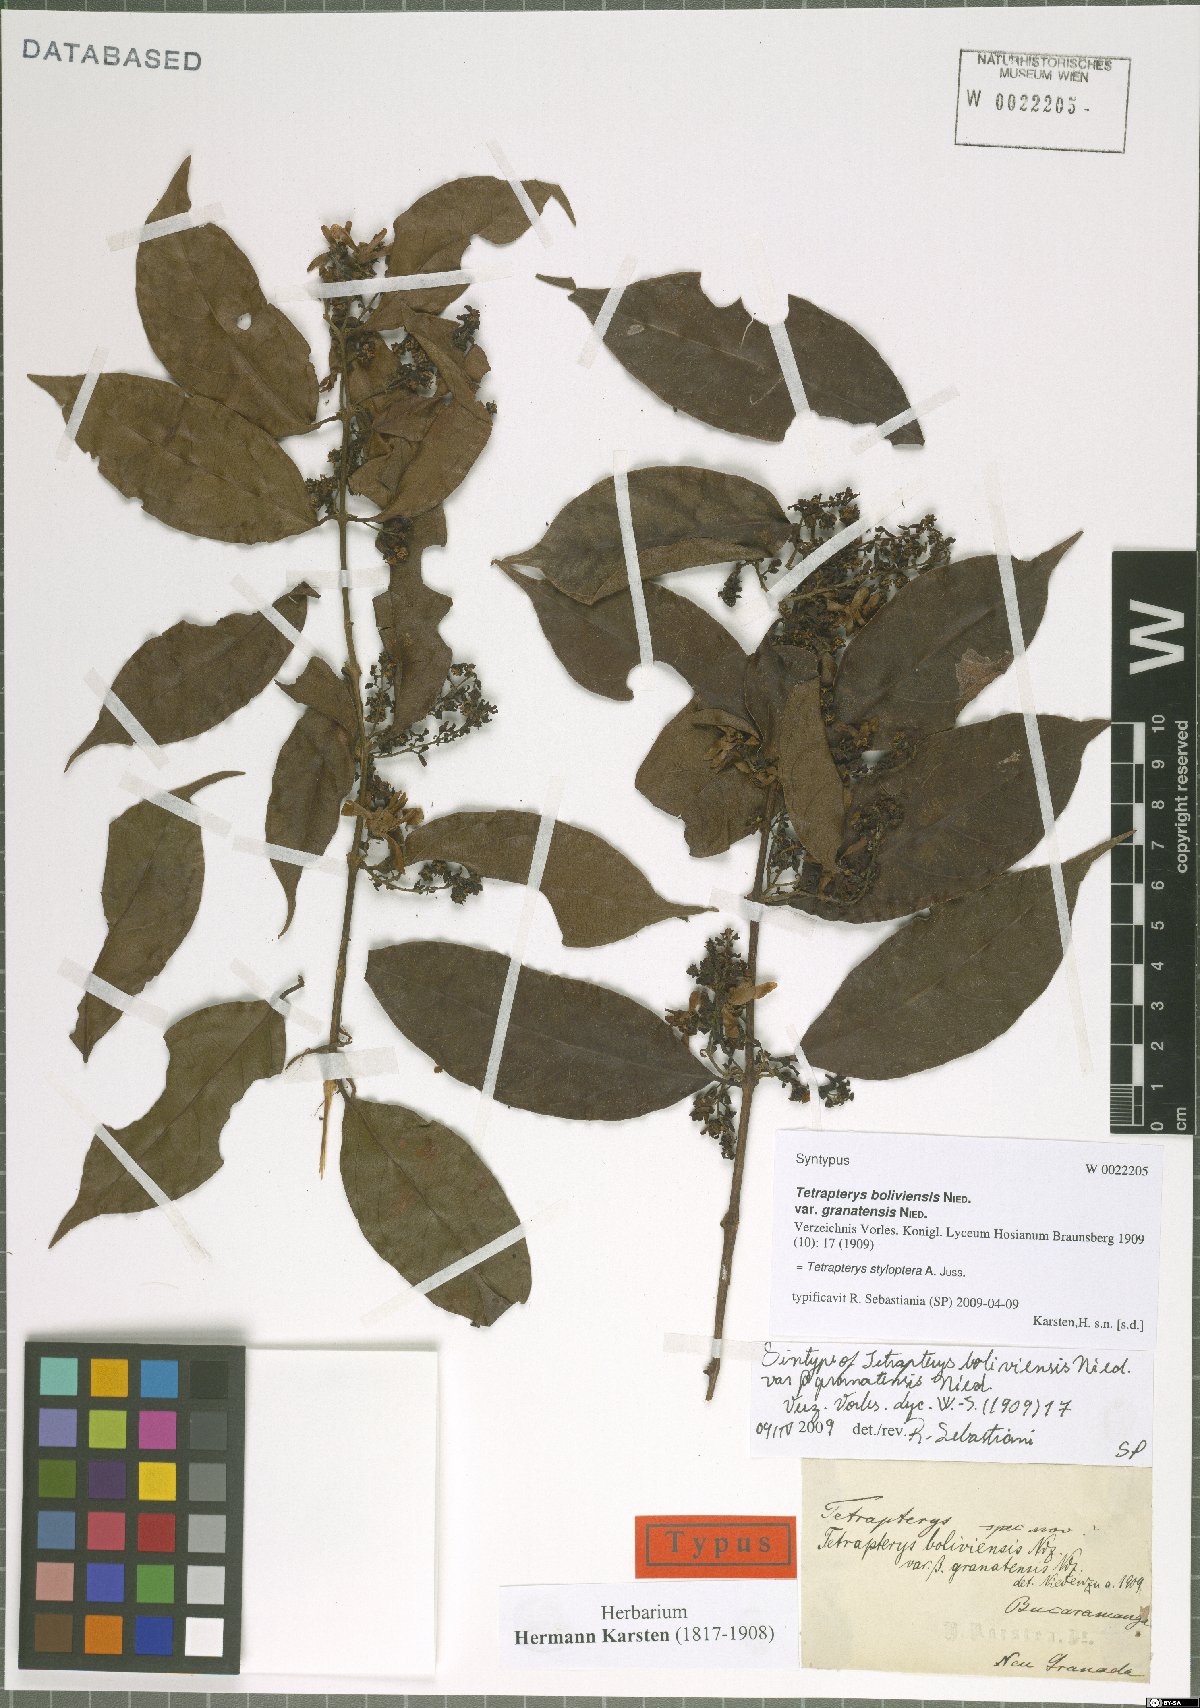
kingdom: Plantae
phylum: Tracheophyta
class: Magnoliopsida
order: Malpighiales
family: Malpighiaceae
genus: Glicophyllum
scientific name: Glicophyllum stylopterum
